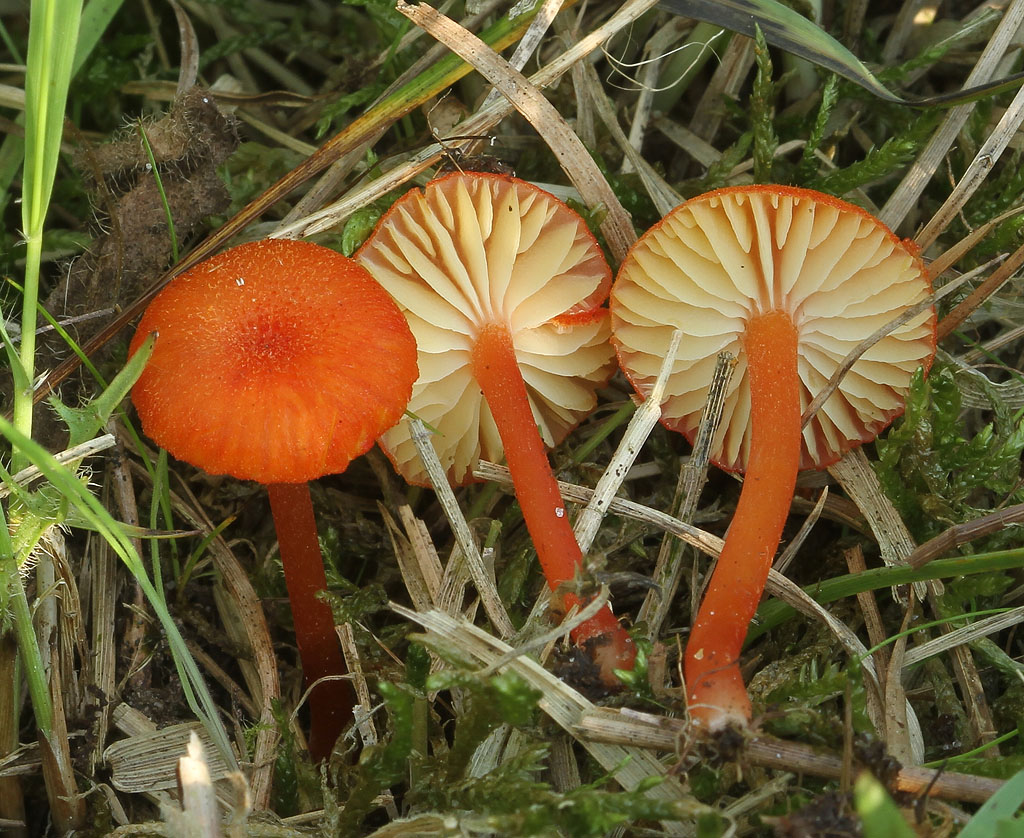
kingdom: Fungi
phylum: Basidiomycota
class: Agaricomycetes
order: Agaricales
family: Hygrophoraceae
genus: Hygrocybe
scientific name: Hygrocybe helobia
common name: hvidløgs-vokshat
